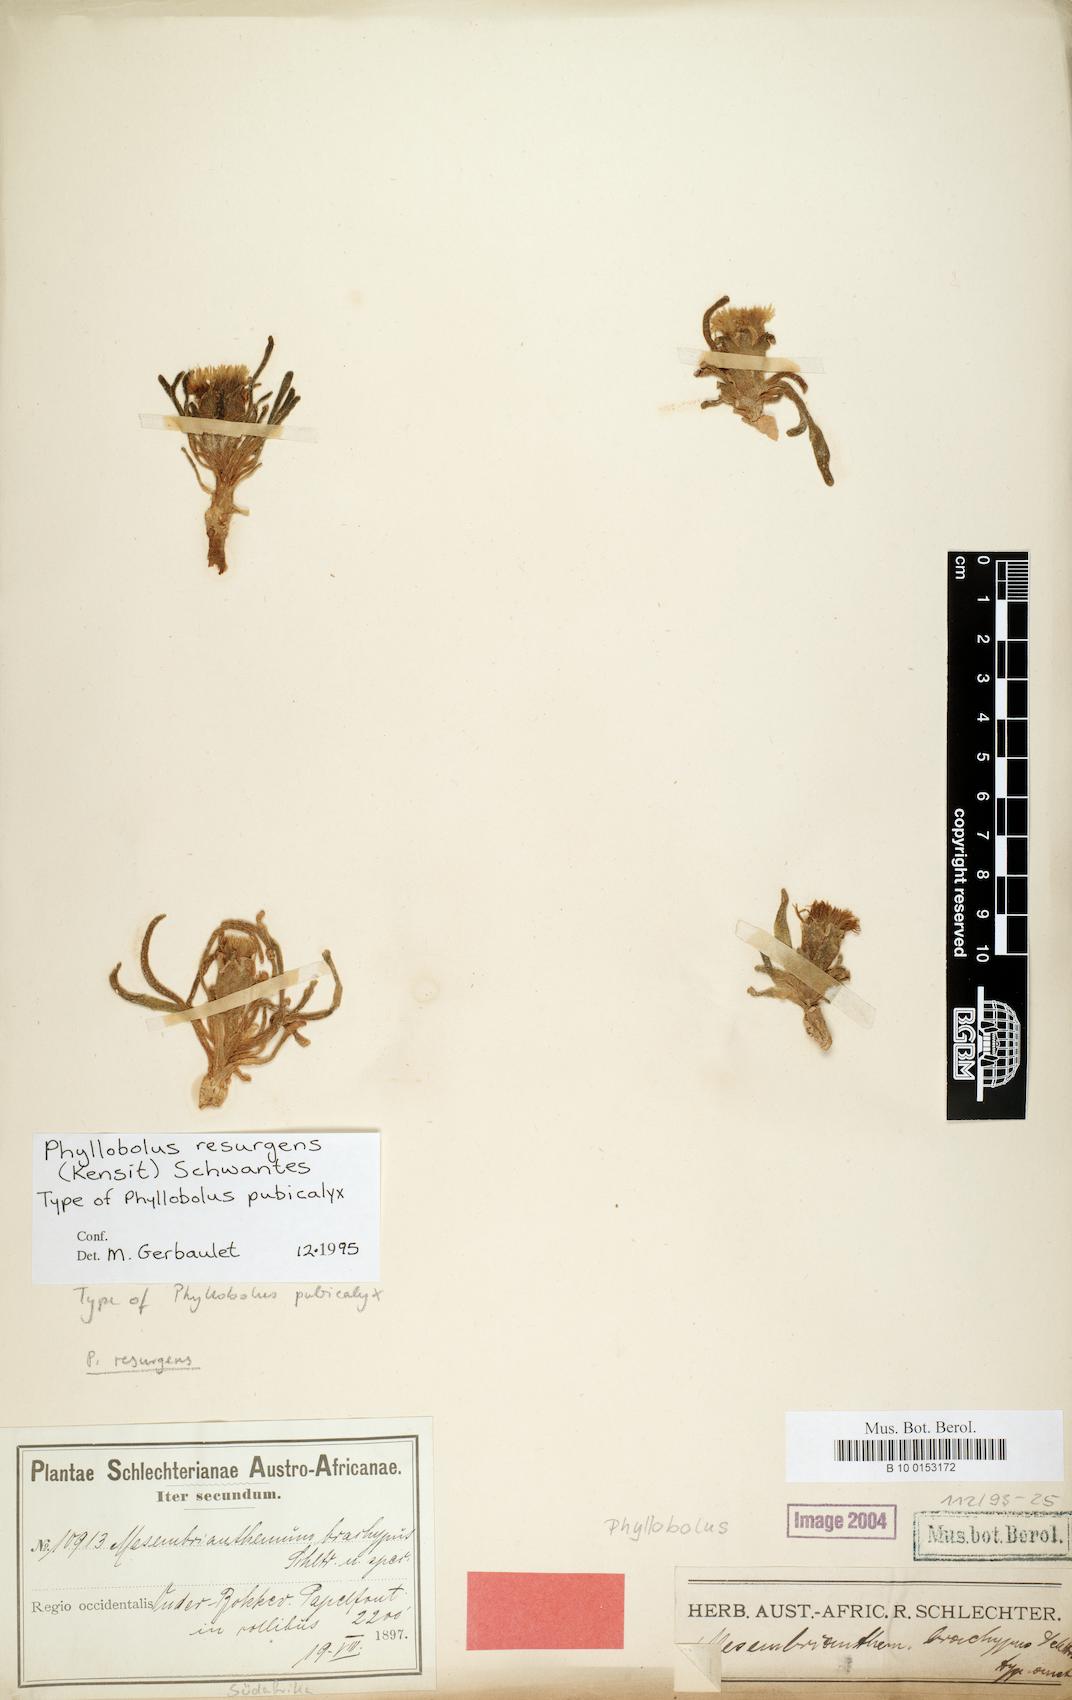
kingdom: Plantae
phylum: Tracheophyta
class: Magnoliopsida
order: Caryophyllales
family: Aizoaceae
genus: Mesembryanthemum
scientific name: Mesembryanthemum resurgens
